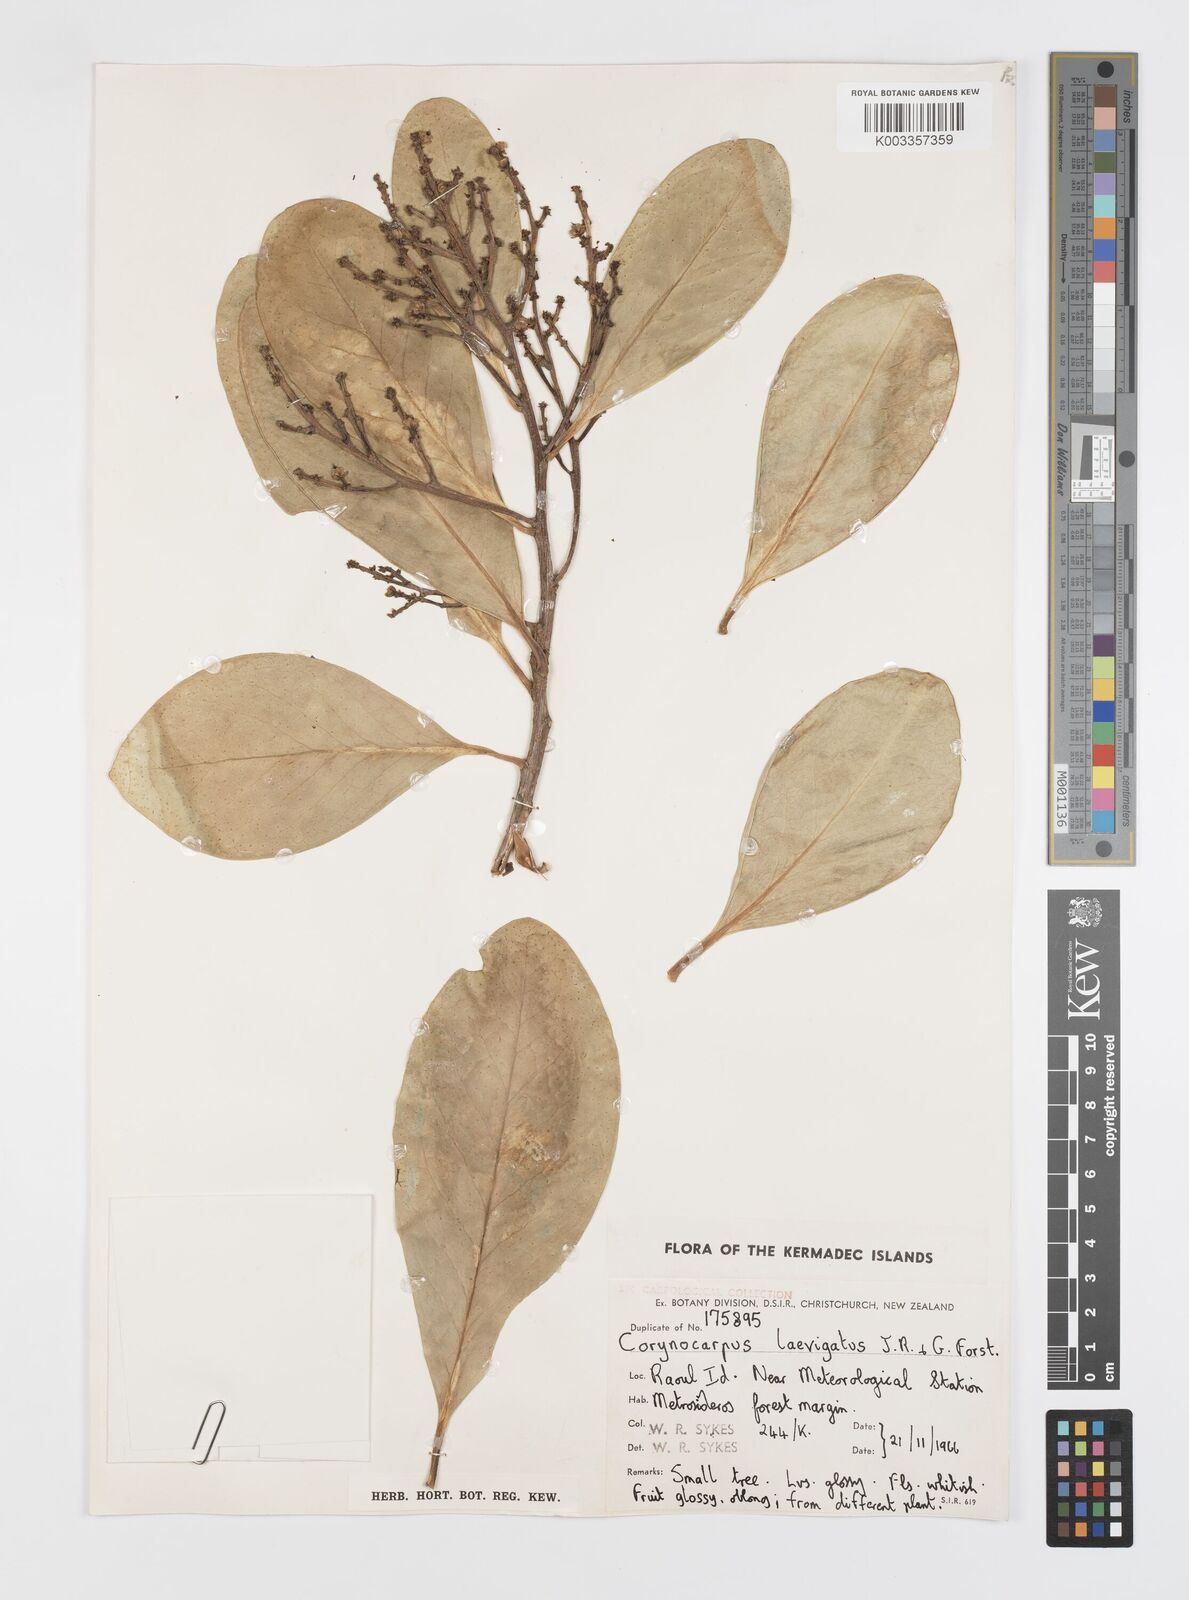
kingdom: Plantae
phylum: Tracheophyta
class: Magnoliopsida
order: Cucurbitales
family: Corynocarpaceae
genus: Corynocarpus
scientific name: Corynocarpus
